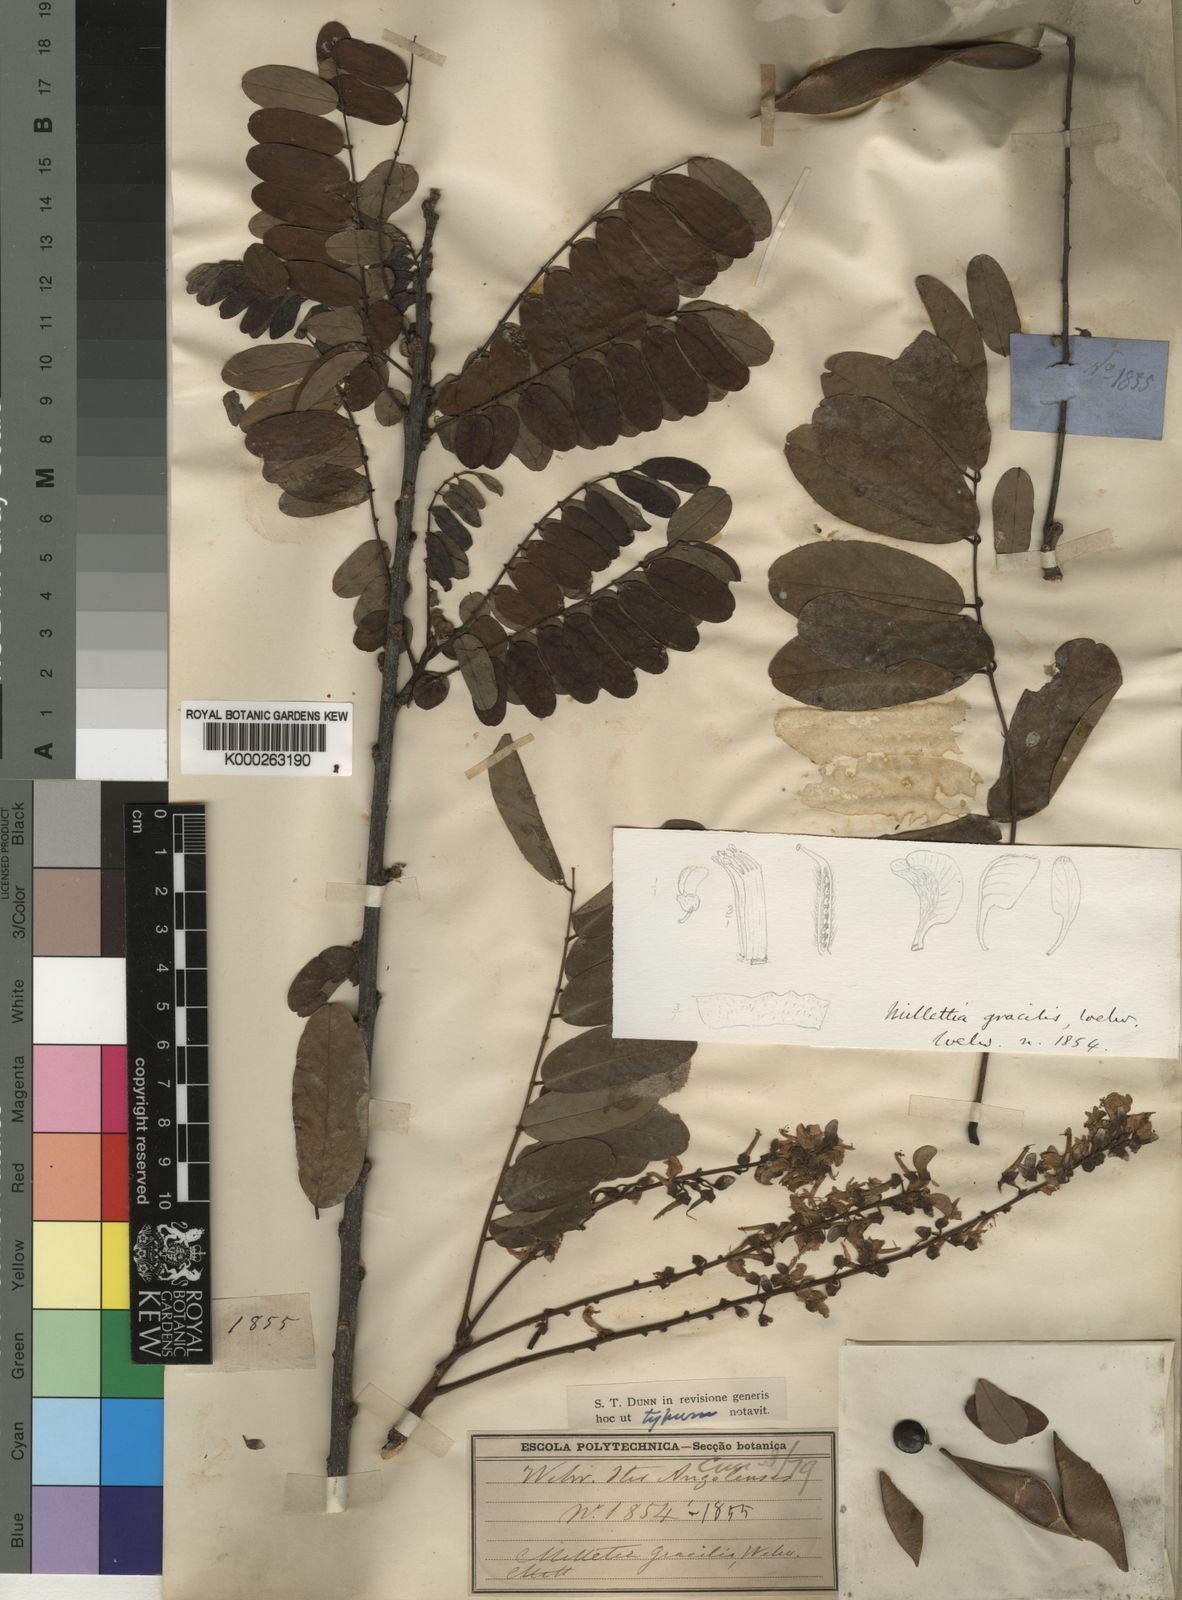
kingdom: Plantae
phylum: Tracheophyta
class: Magnoliopsida
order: Fabales
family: Fabaceae
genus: Millettia
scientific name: Millettia
